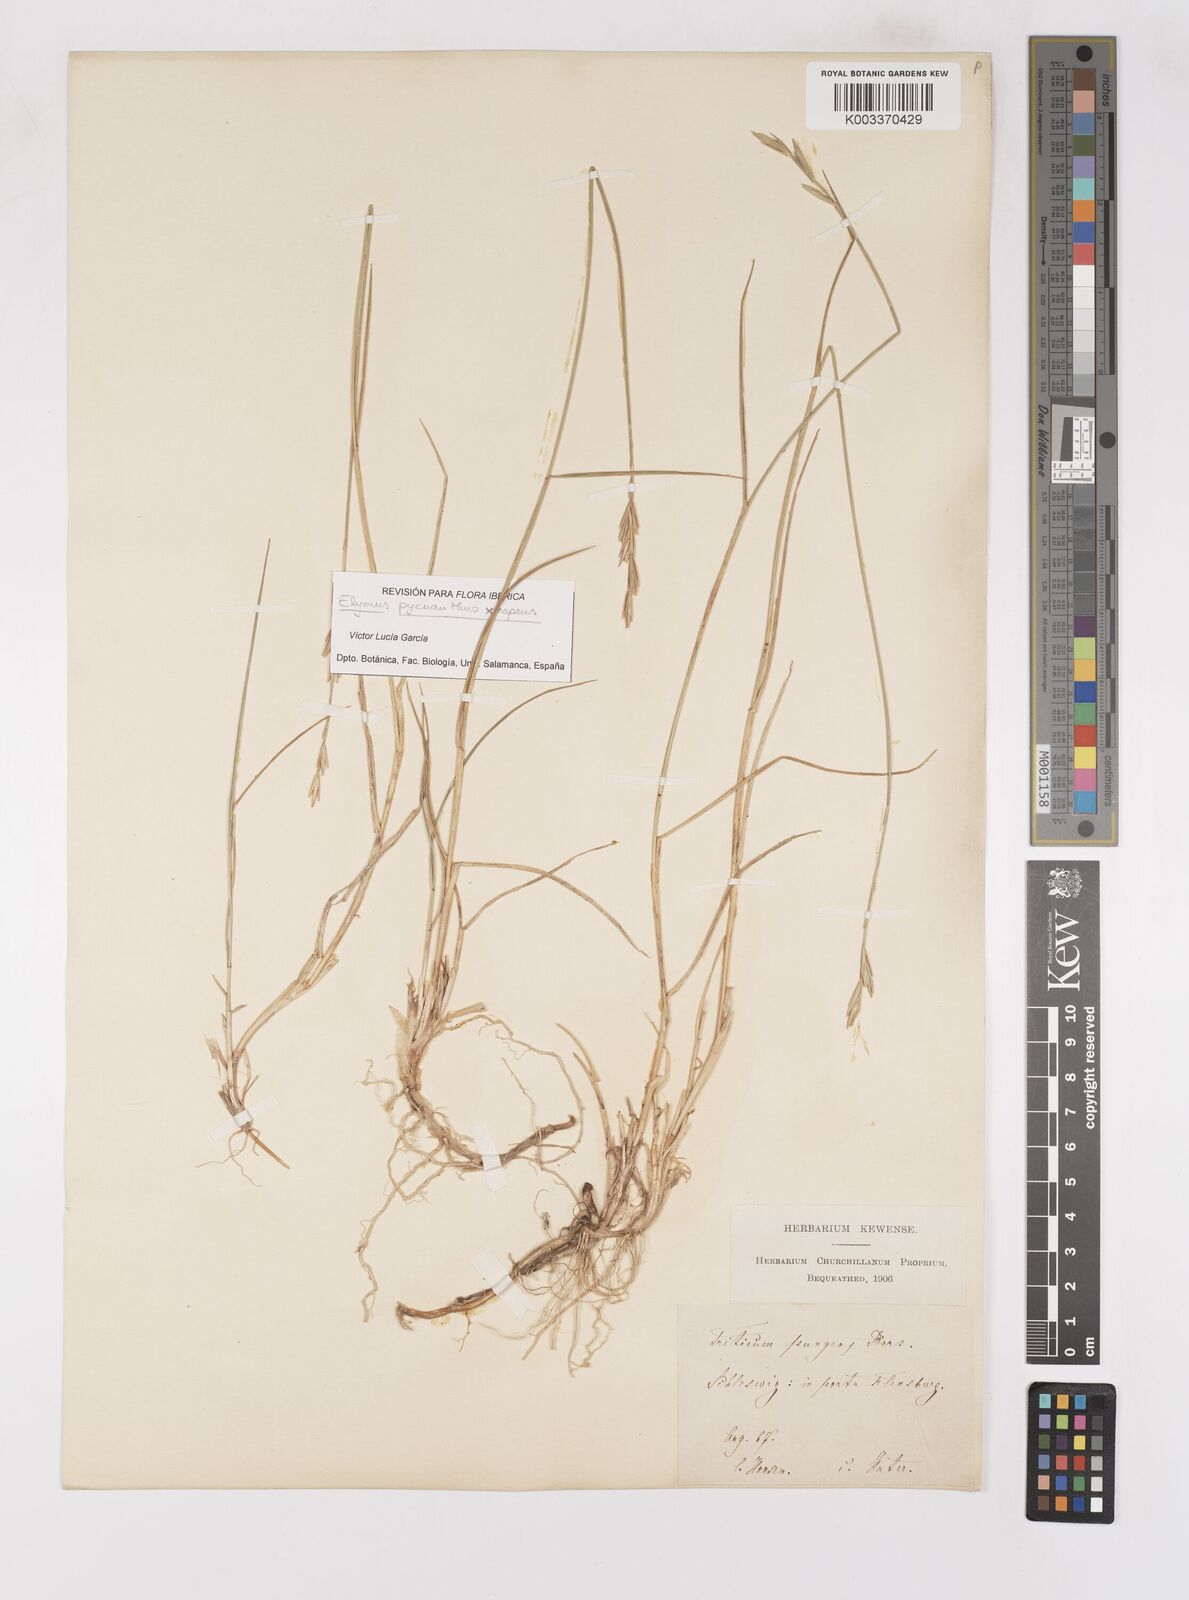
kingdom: Plantae
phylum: Tracheophyta
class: Liliopsida
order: Poales
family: Poaceae
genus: Elymus
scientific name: Elymus oliveri
